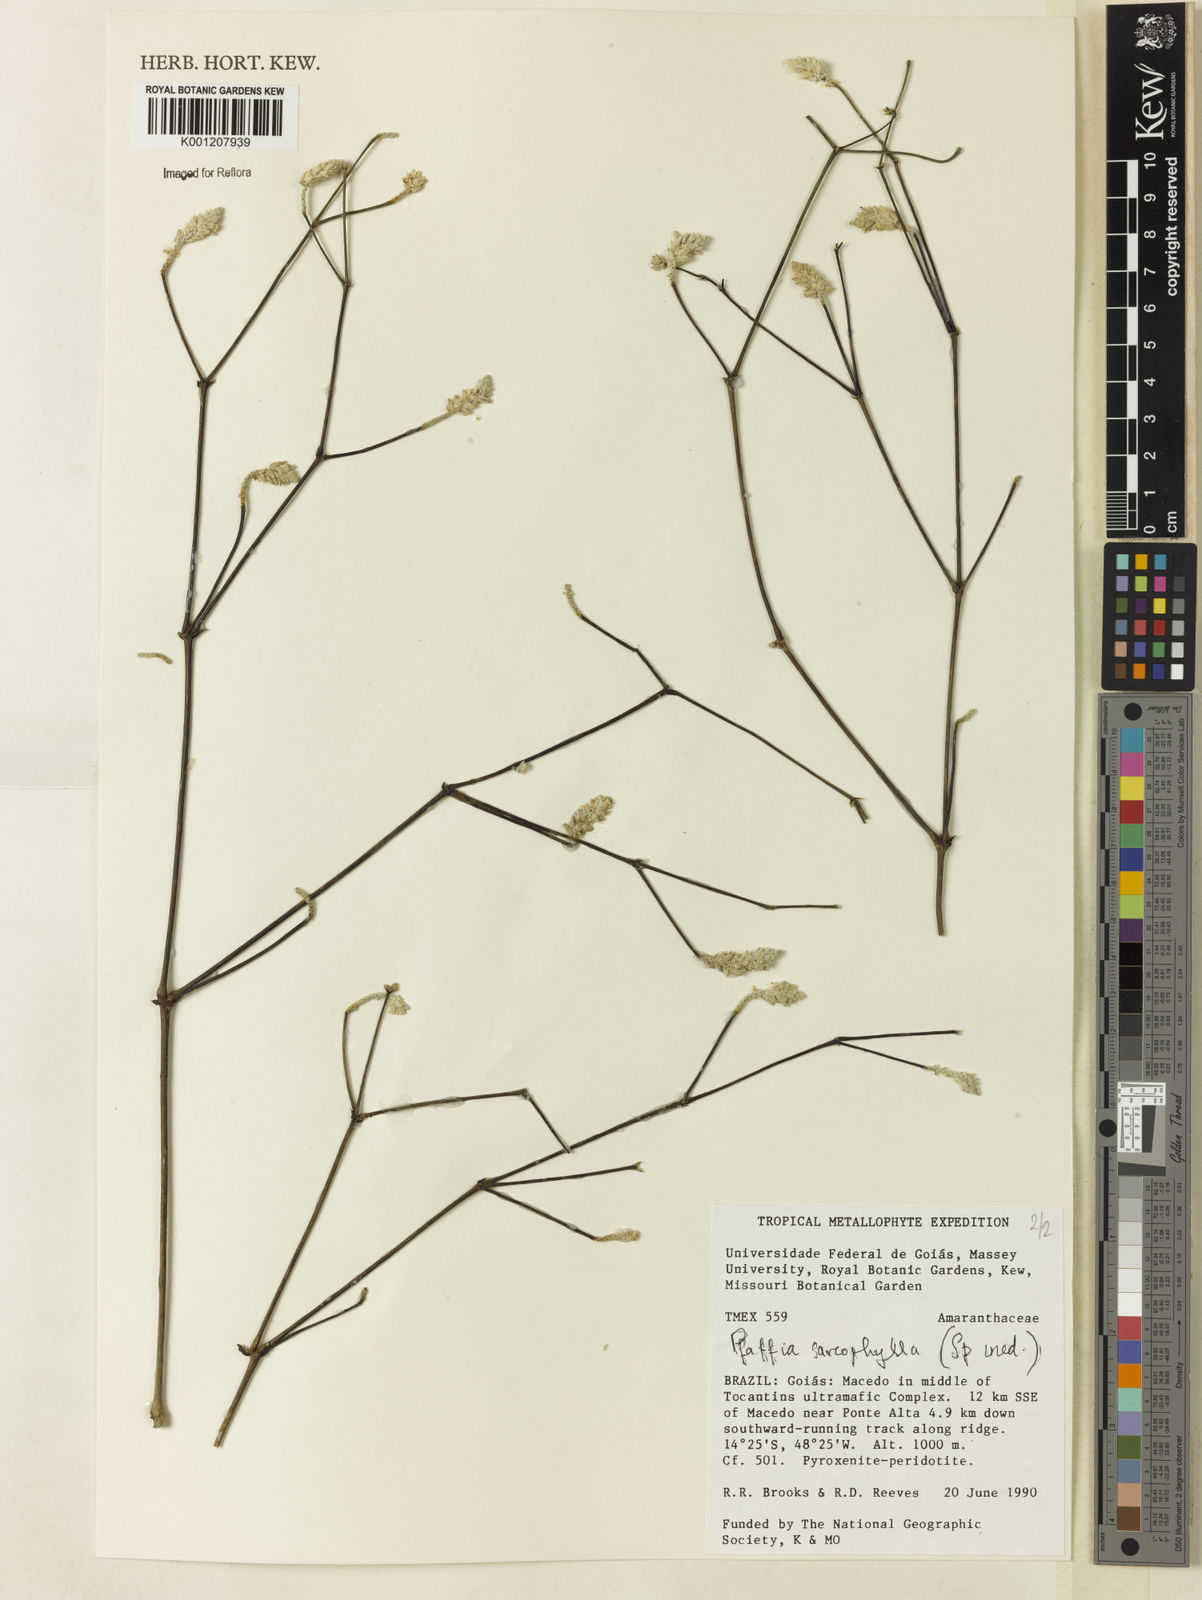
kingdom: Plantae
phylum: Tracheophyta
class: Magnoliopsida
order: Caryophyllales
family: Amaranthaceae
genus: Pfaffia
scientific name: Pfaffia sarcophylla
